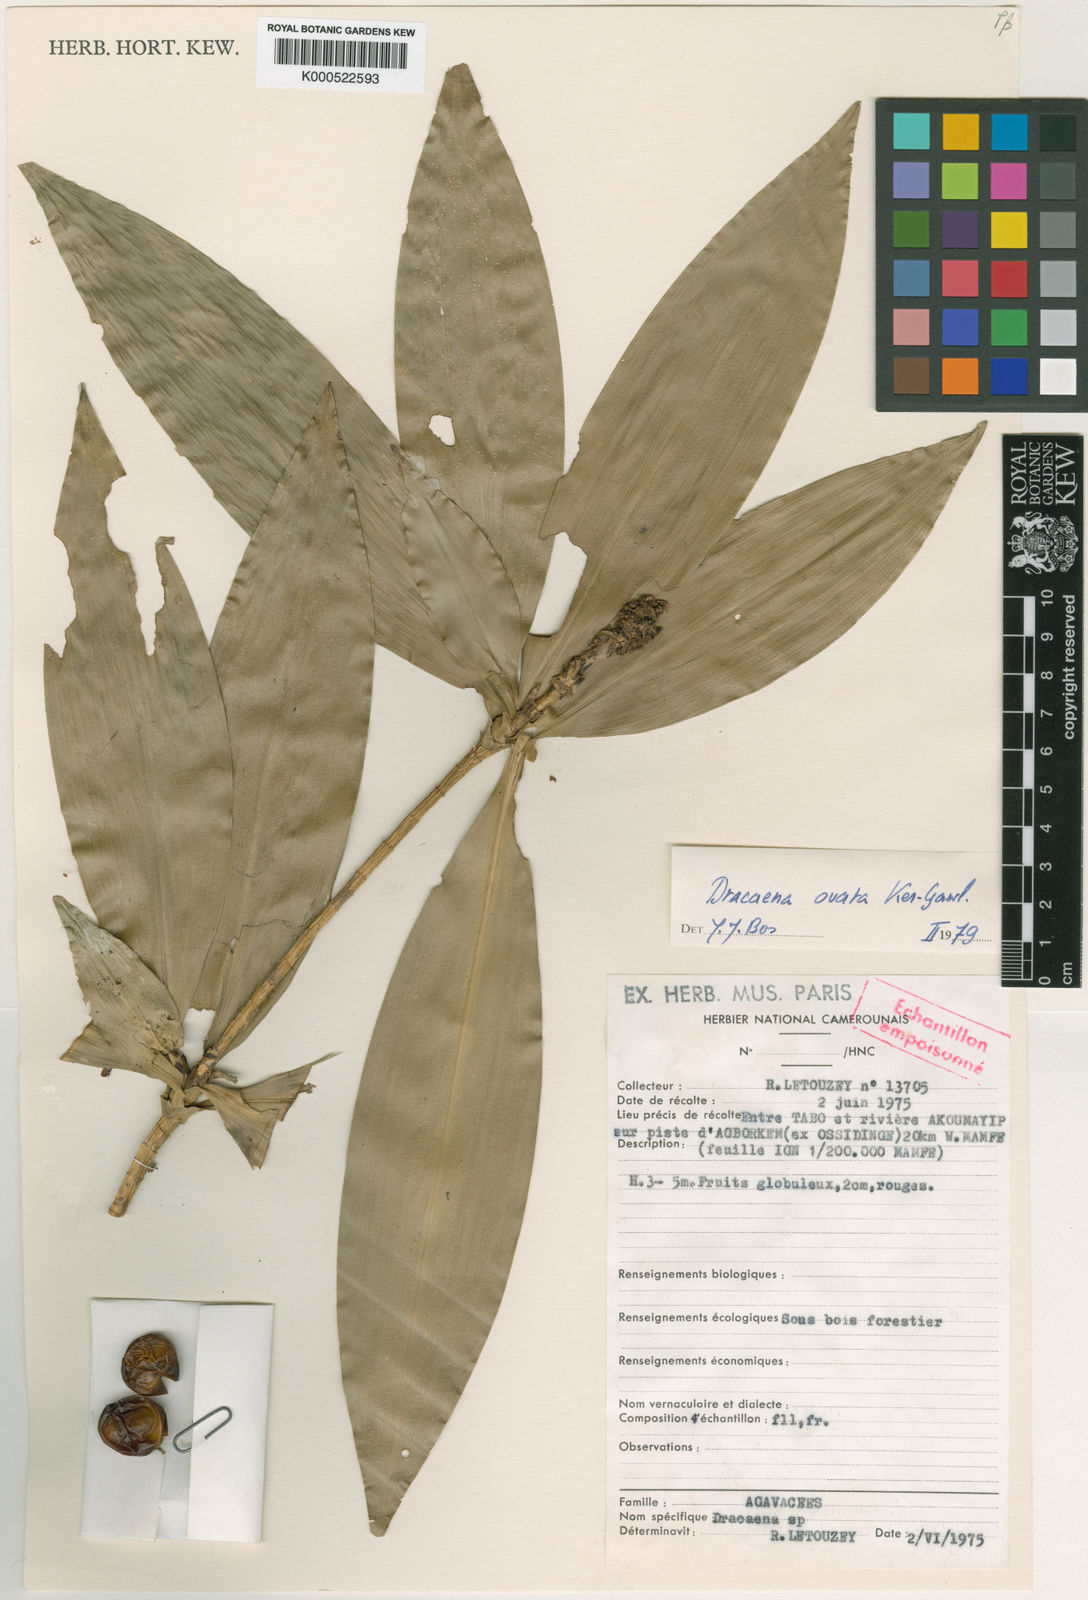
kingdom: Plantae
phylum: Tracheophyta
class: Liliopsida
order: Asparagales
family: Asparagaceae
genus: Dracaena
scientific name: Dracaena ovata
